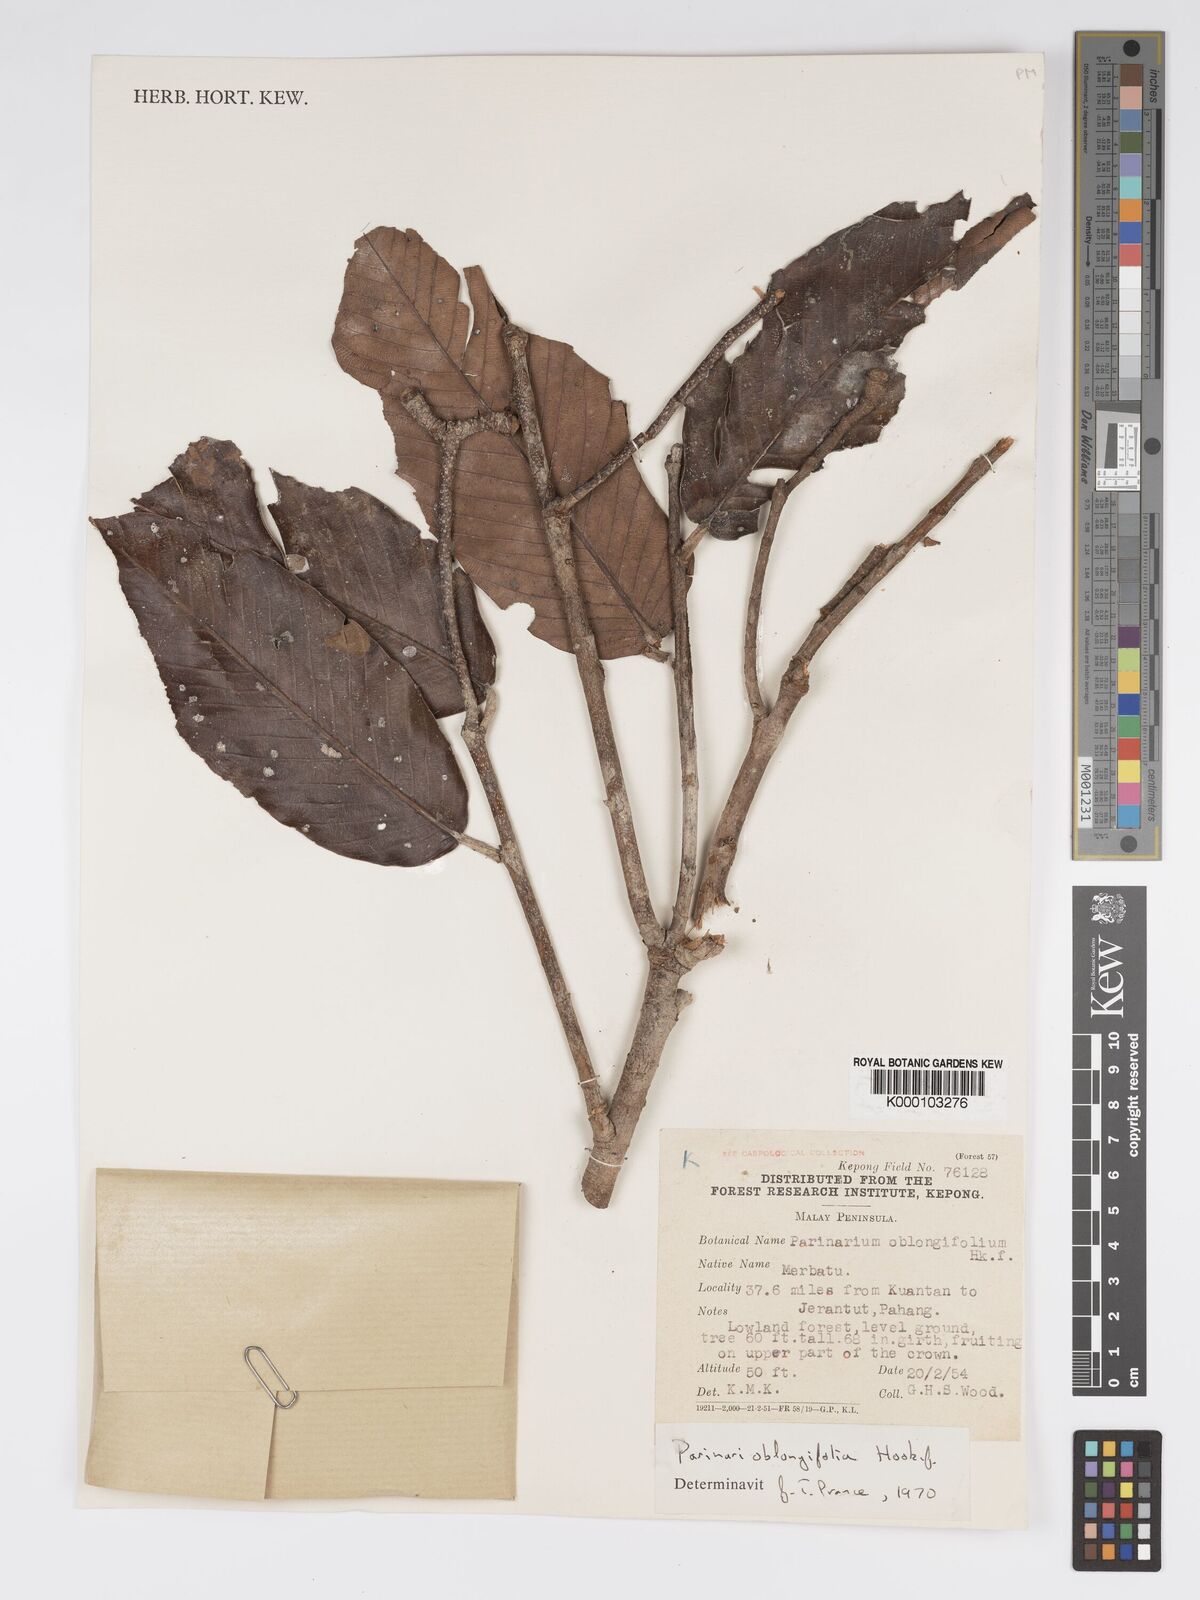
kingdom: Plantae
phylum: Tracheophyta
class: Magnoliopsida
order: Malpighiales
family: Chrysobalanaceae
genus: Parinari
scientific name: Parinari oblongifolia
